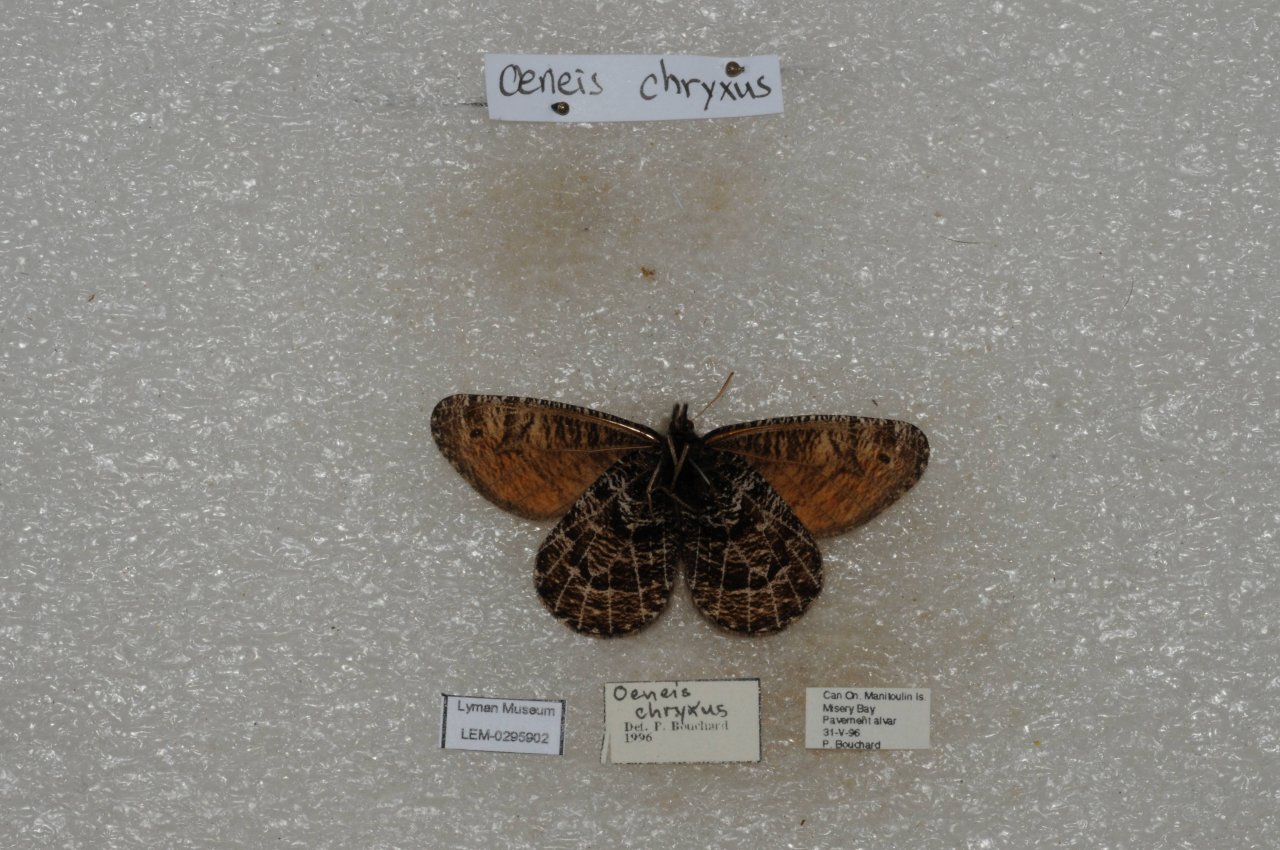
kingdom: Animalia
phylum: Arthropoda
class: Insecta
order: Lepidoptera
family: Nymphalidae
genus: Oeneis
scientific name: Oeneis chryxus
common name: Chryxus Arctic
